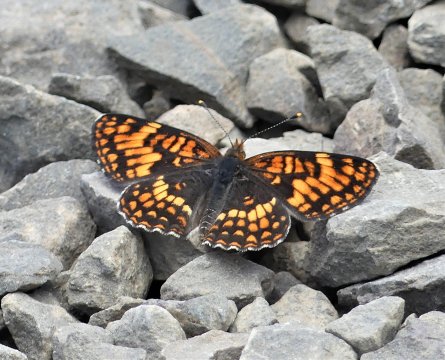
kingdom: Animalia
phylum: Arthropoda
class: Insecta
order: Lepidoptera
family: Nymphalidae
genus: Chlosyne
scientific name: Chlosyne hoffmanni
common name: Hoffmann's Checkerspot
